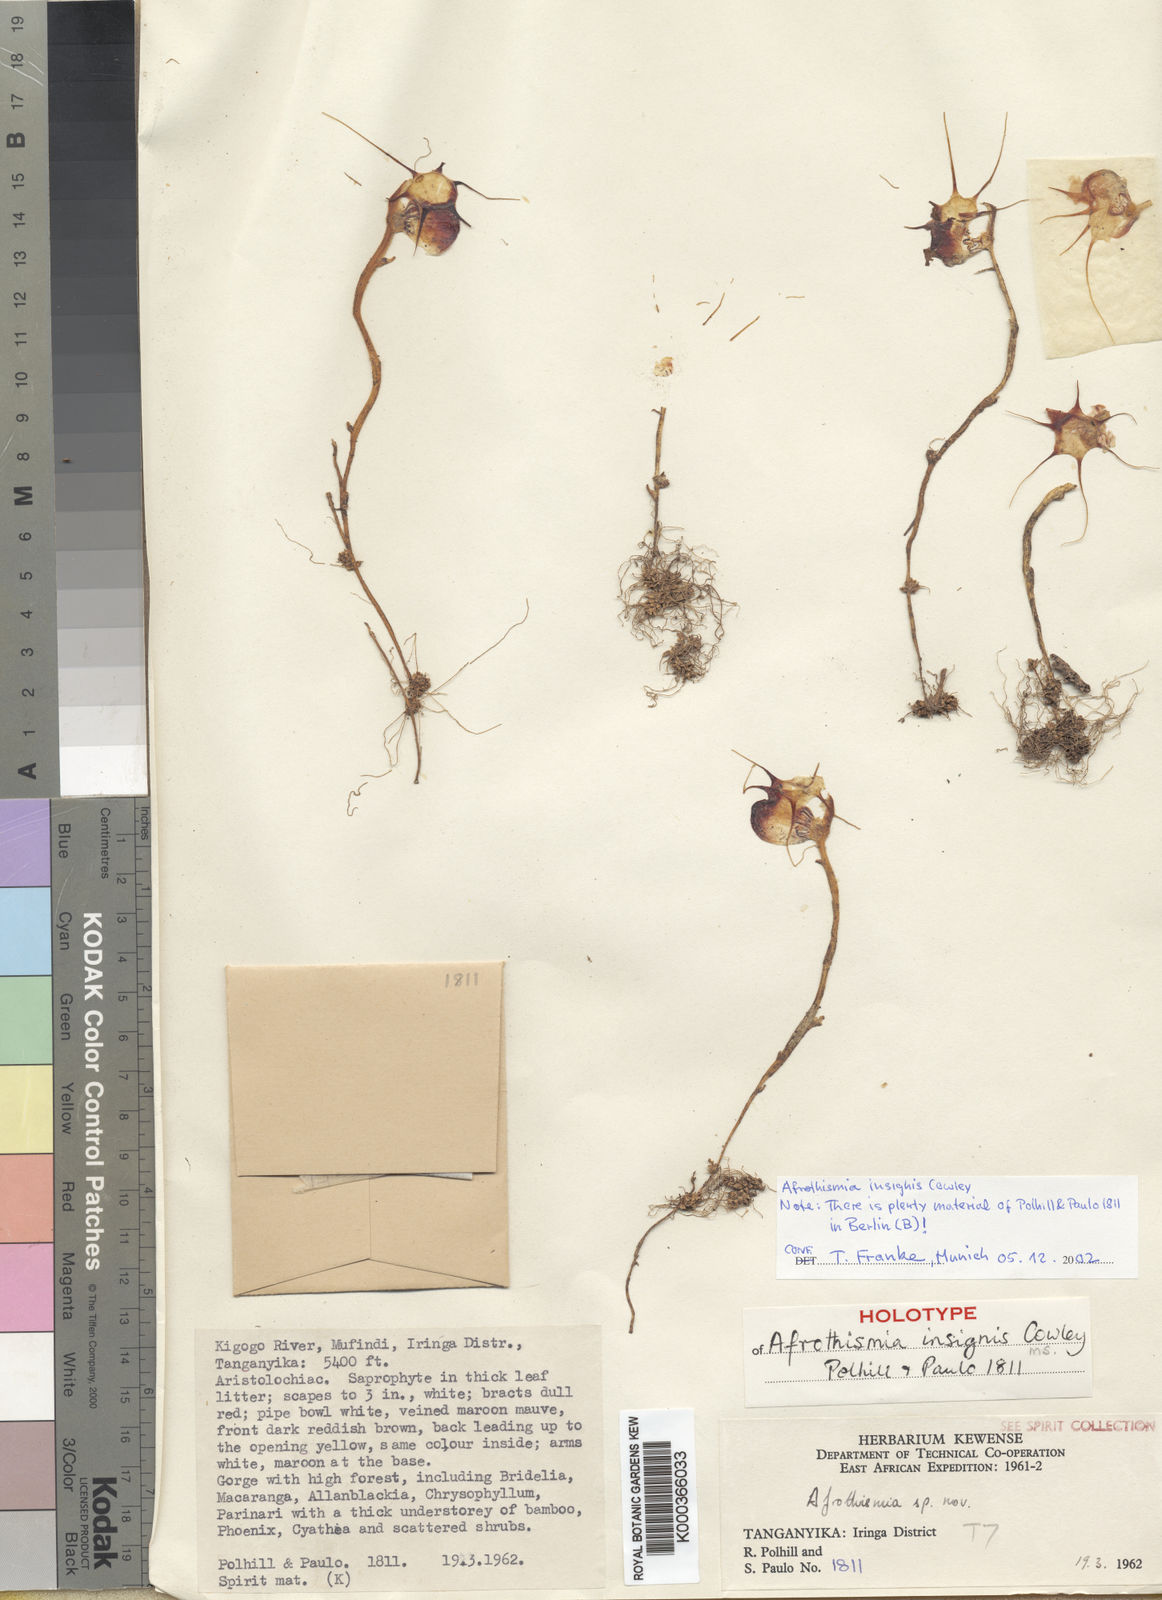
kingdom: Plantae
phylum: Tracheophyta
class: Liliopsida
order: Dioscoreales
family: Burmanniaceae
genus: Afrothismia
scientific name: Afrothismia insignis
